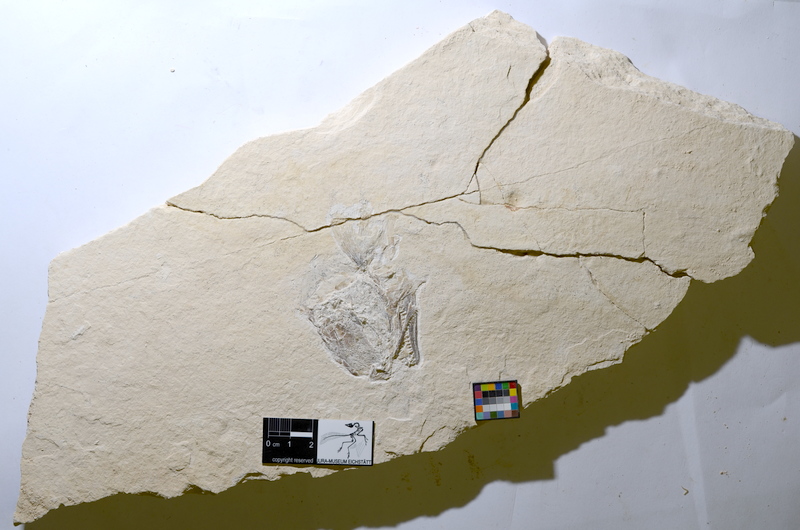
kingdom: Animalia
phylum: Chordata
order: Amiiformes
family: Caturidae
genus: Caturus
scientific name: Caturus
